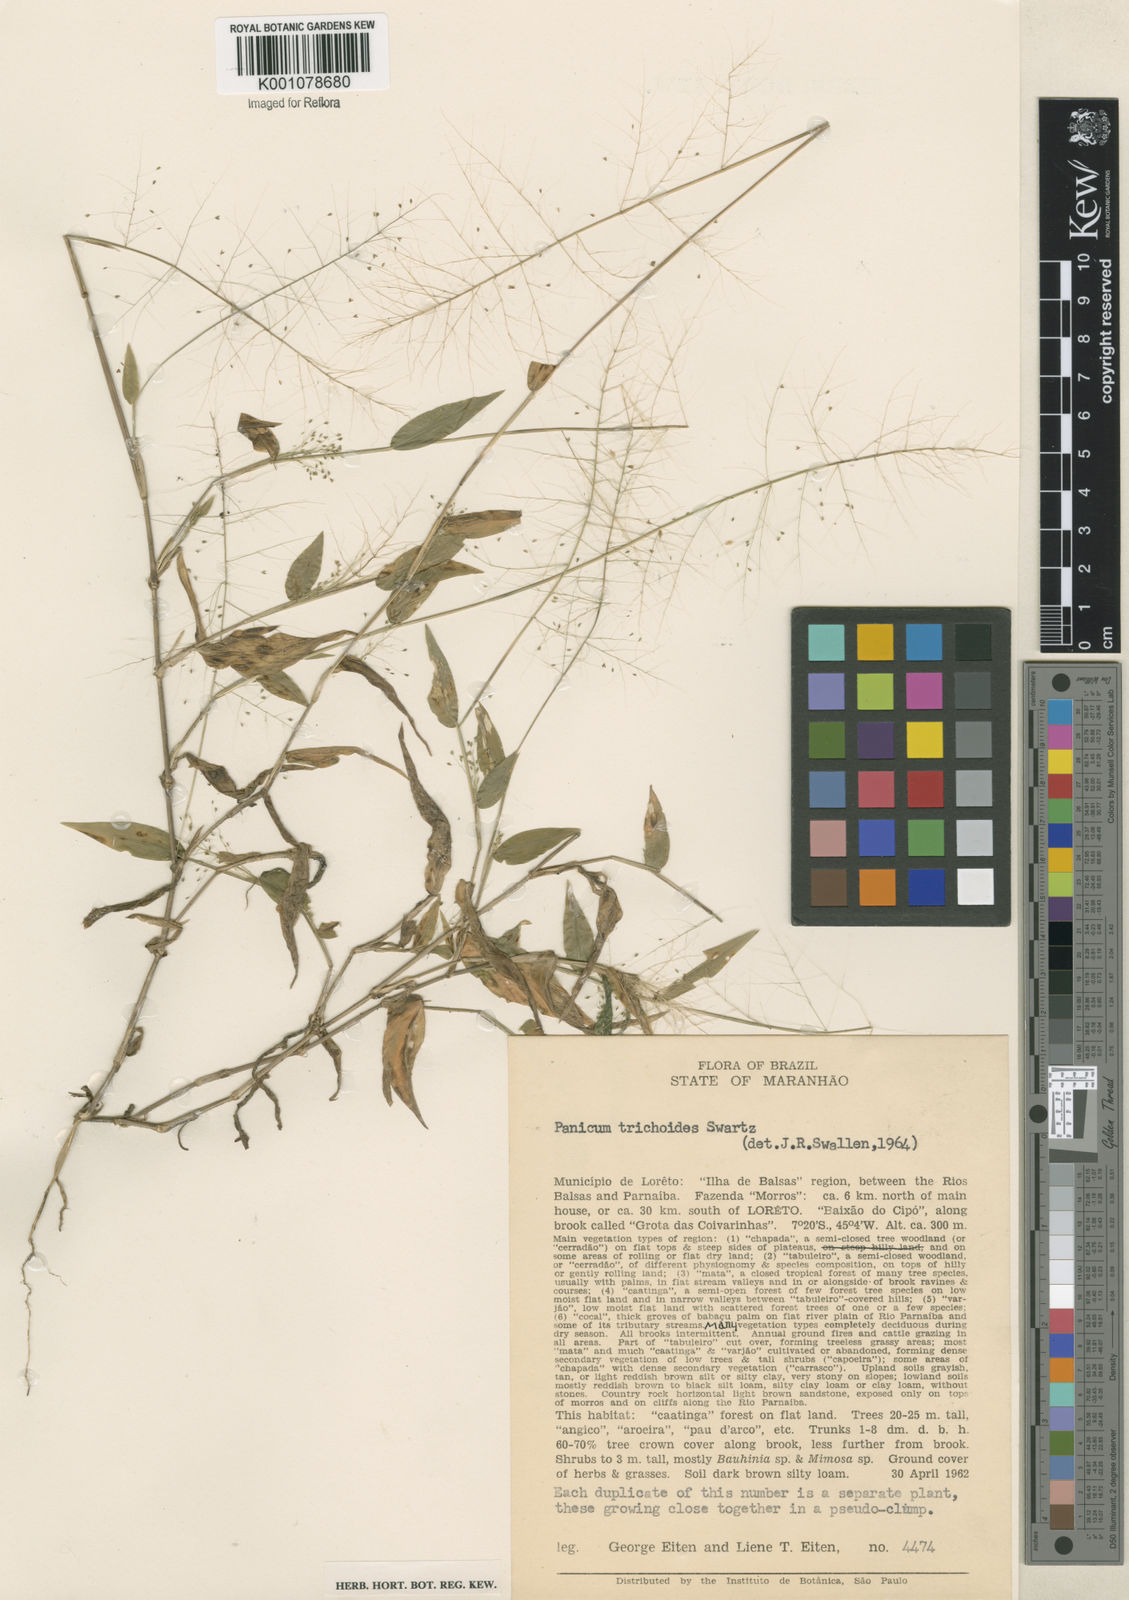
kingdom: Plantae
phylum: Tracheophyta
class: Liliopsida
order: Poales
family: Poaceae
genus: Panicum
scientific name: Panicum trichoides
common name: Tickle grass
